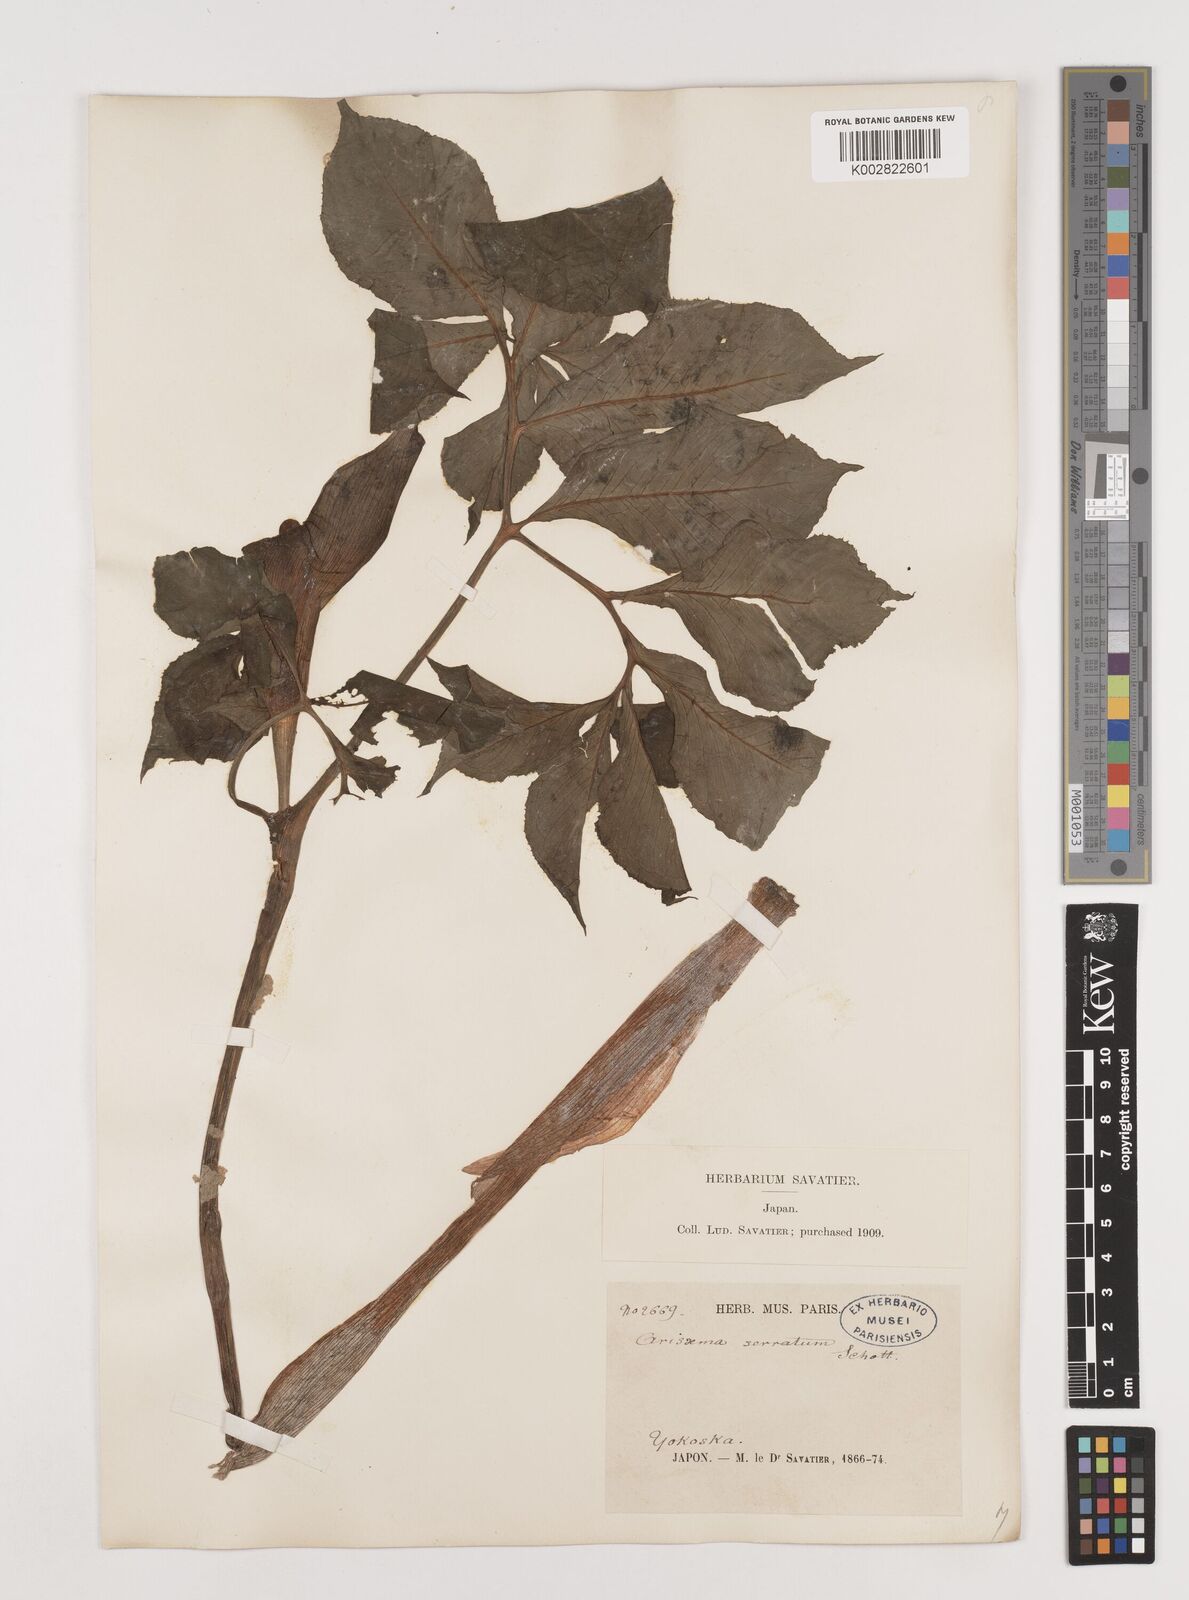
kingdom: Plantae
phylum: Tracheophyta
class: Liliopsida
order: Alismatales
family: Araceae
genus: Arisaema
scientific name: Arisaema serratum
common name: Japanese arisaema
